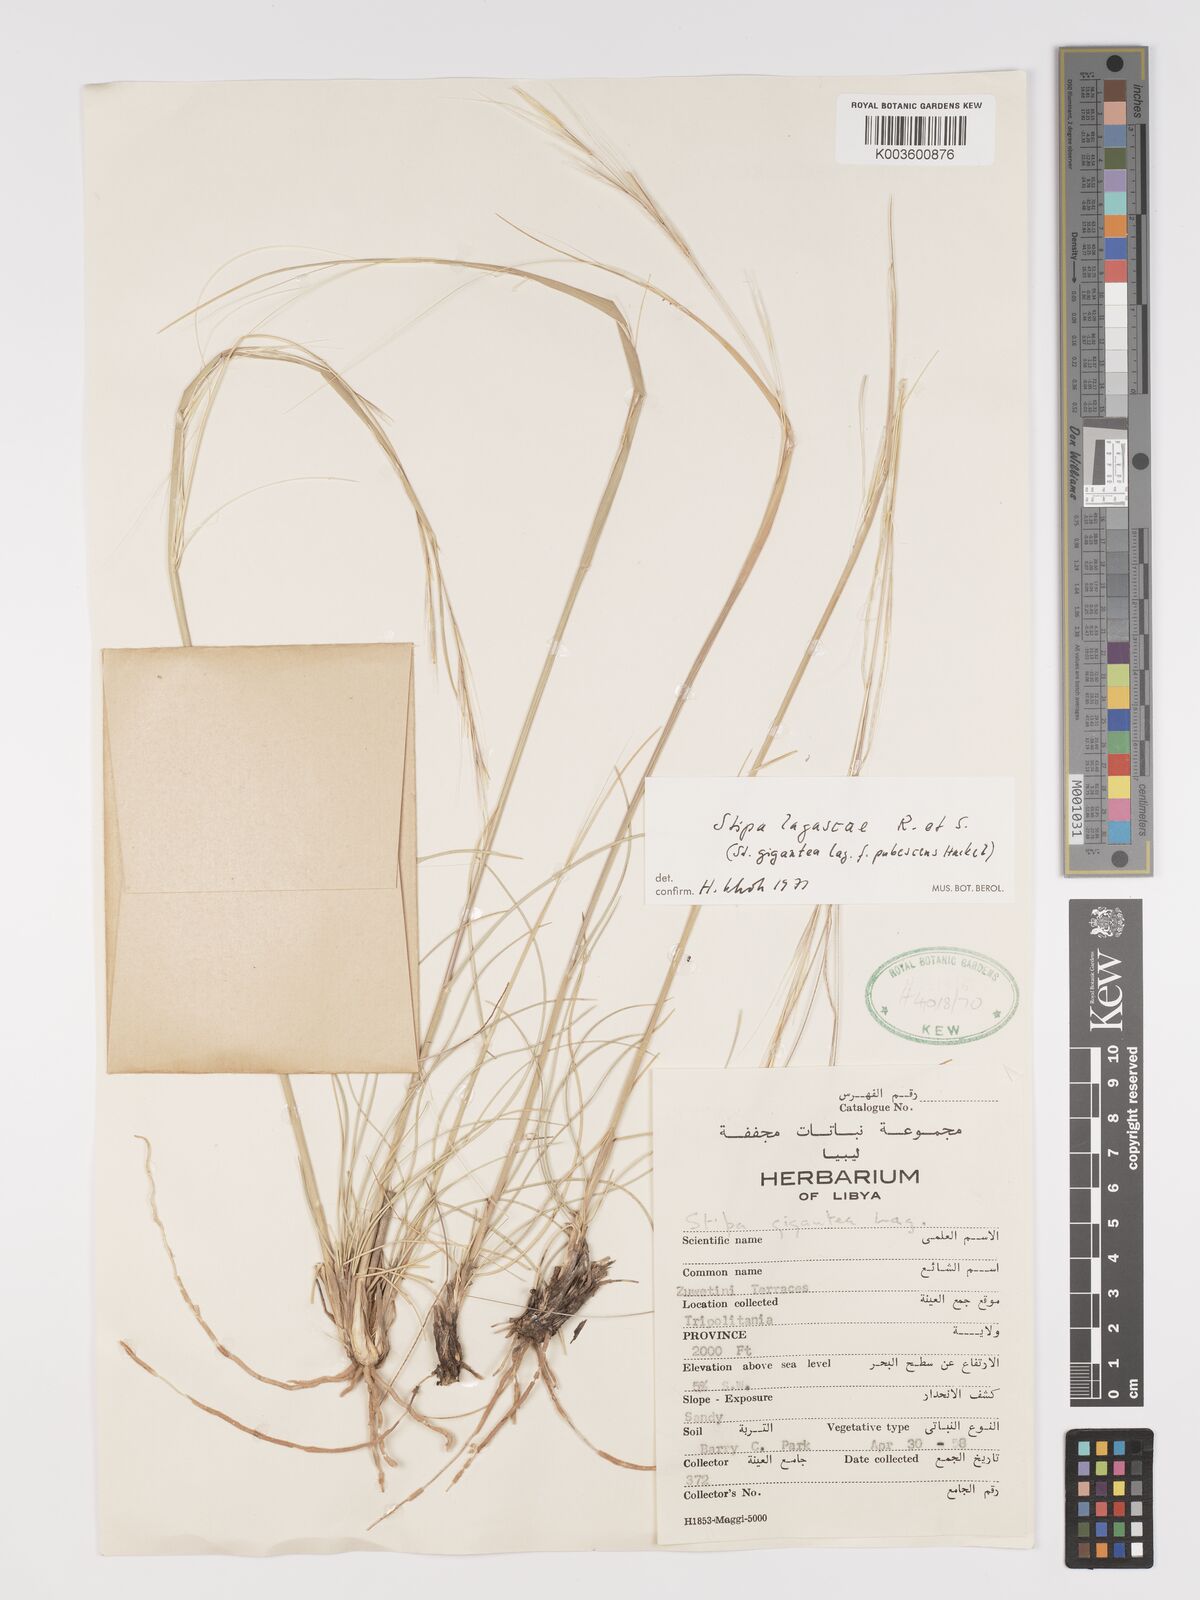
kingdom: Plantae
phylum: Tracheophyta
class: Liliopsida
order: Poales
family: Poaceae
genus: Stipa
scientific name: Stipa lagascae
